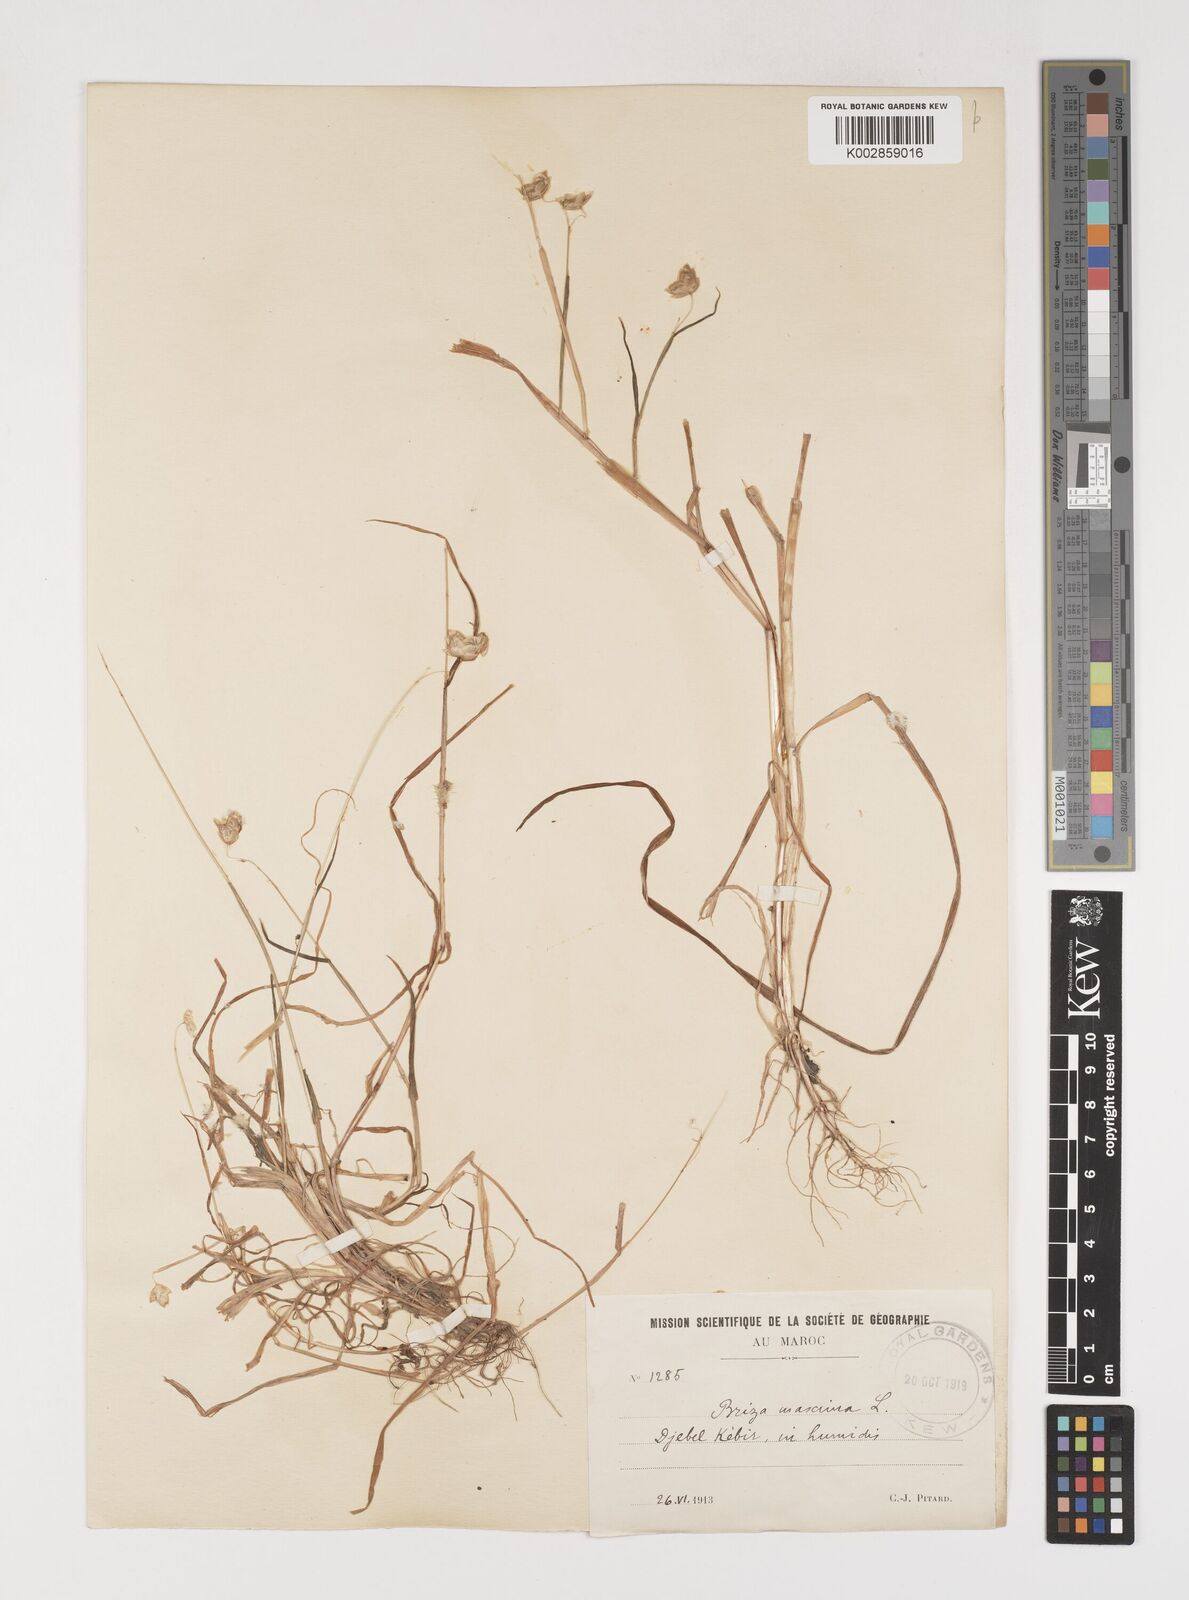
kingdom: Plantae
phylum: Tracheophyta
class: Liliopsida
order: Poales
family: Poaceae
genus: Briza
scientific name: Briza maxima
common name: Big quakinggrass
